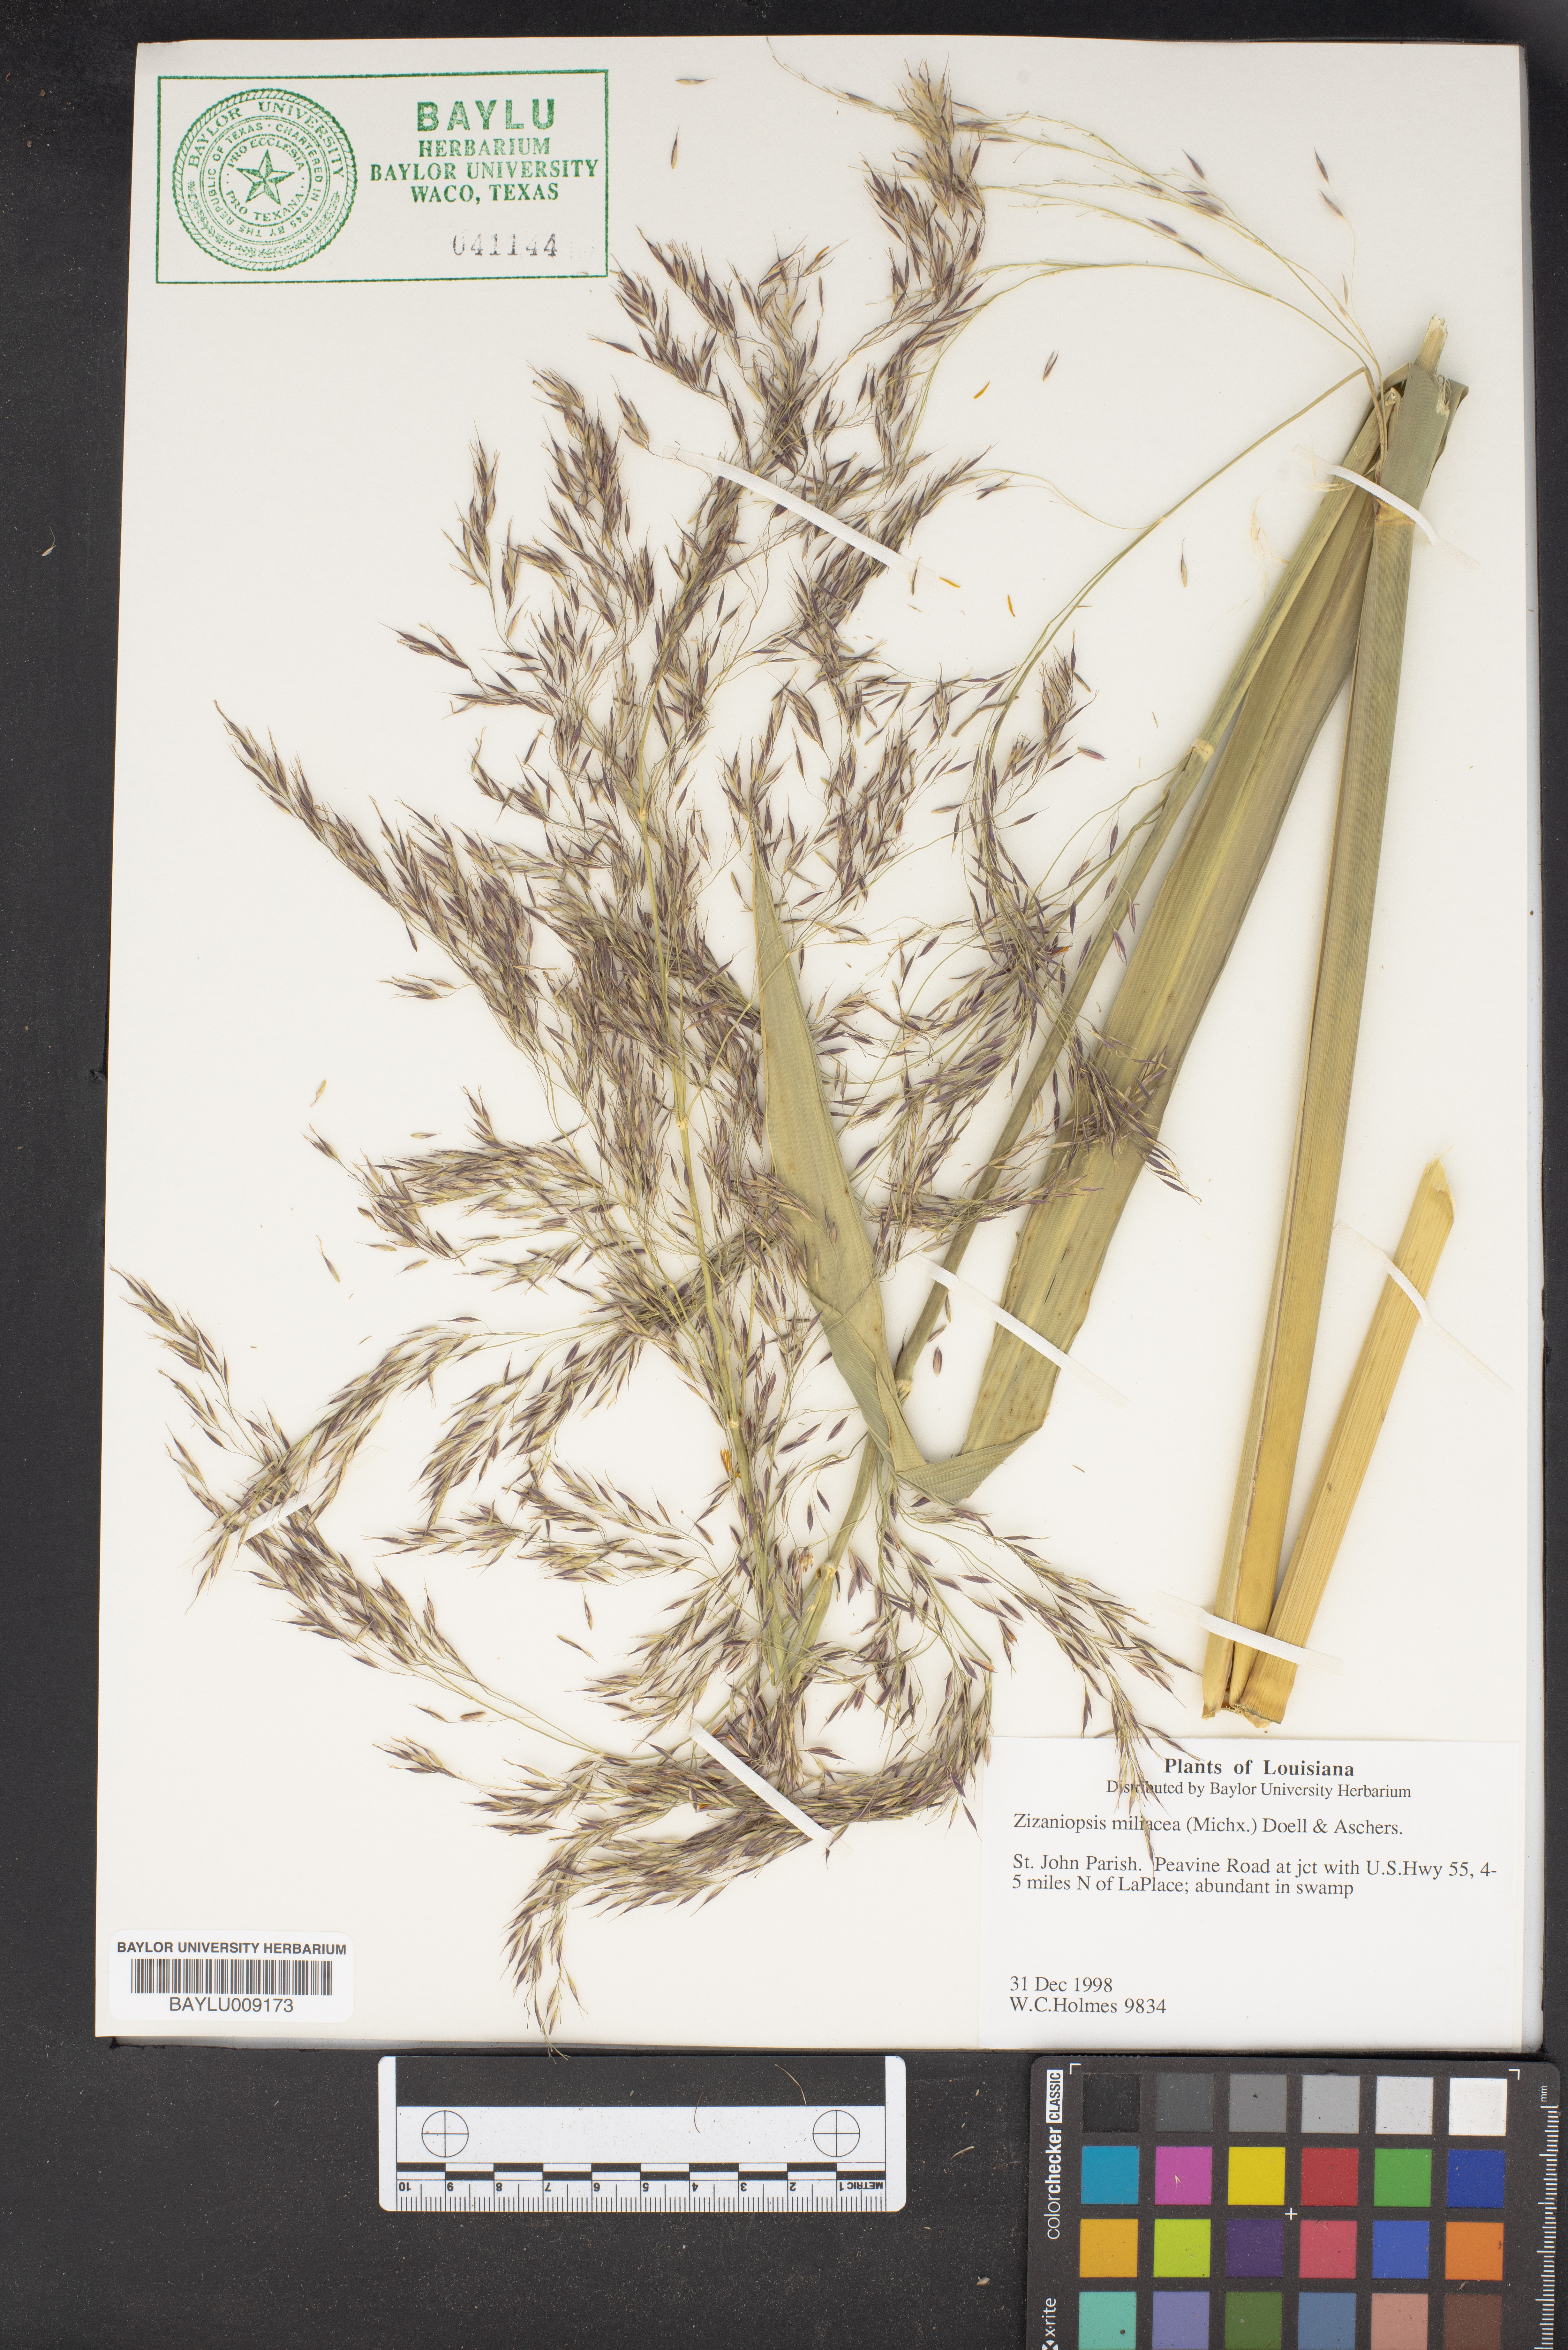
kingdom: Plantae
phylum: Tracheophyta
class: Liliopsida
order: Poales
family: Poaceae
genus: Zizaniopsis
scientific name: Zizaniopsis miliacea
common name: Giant-cutgrass
